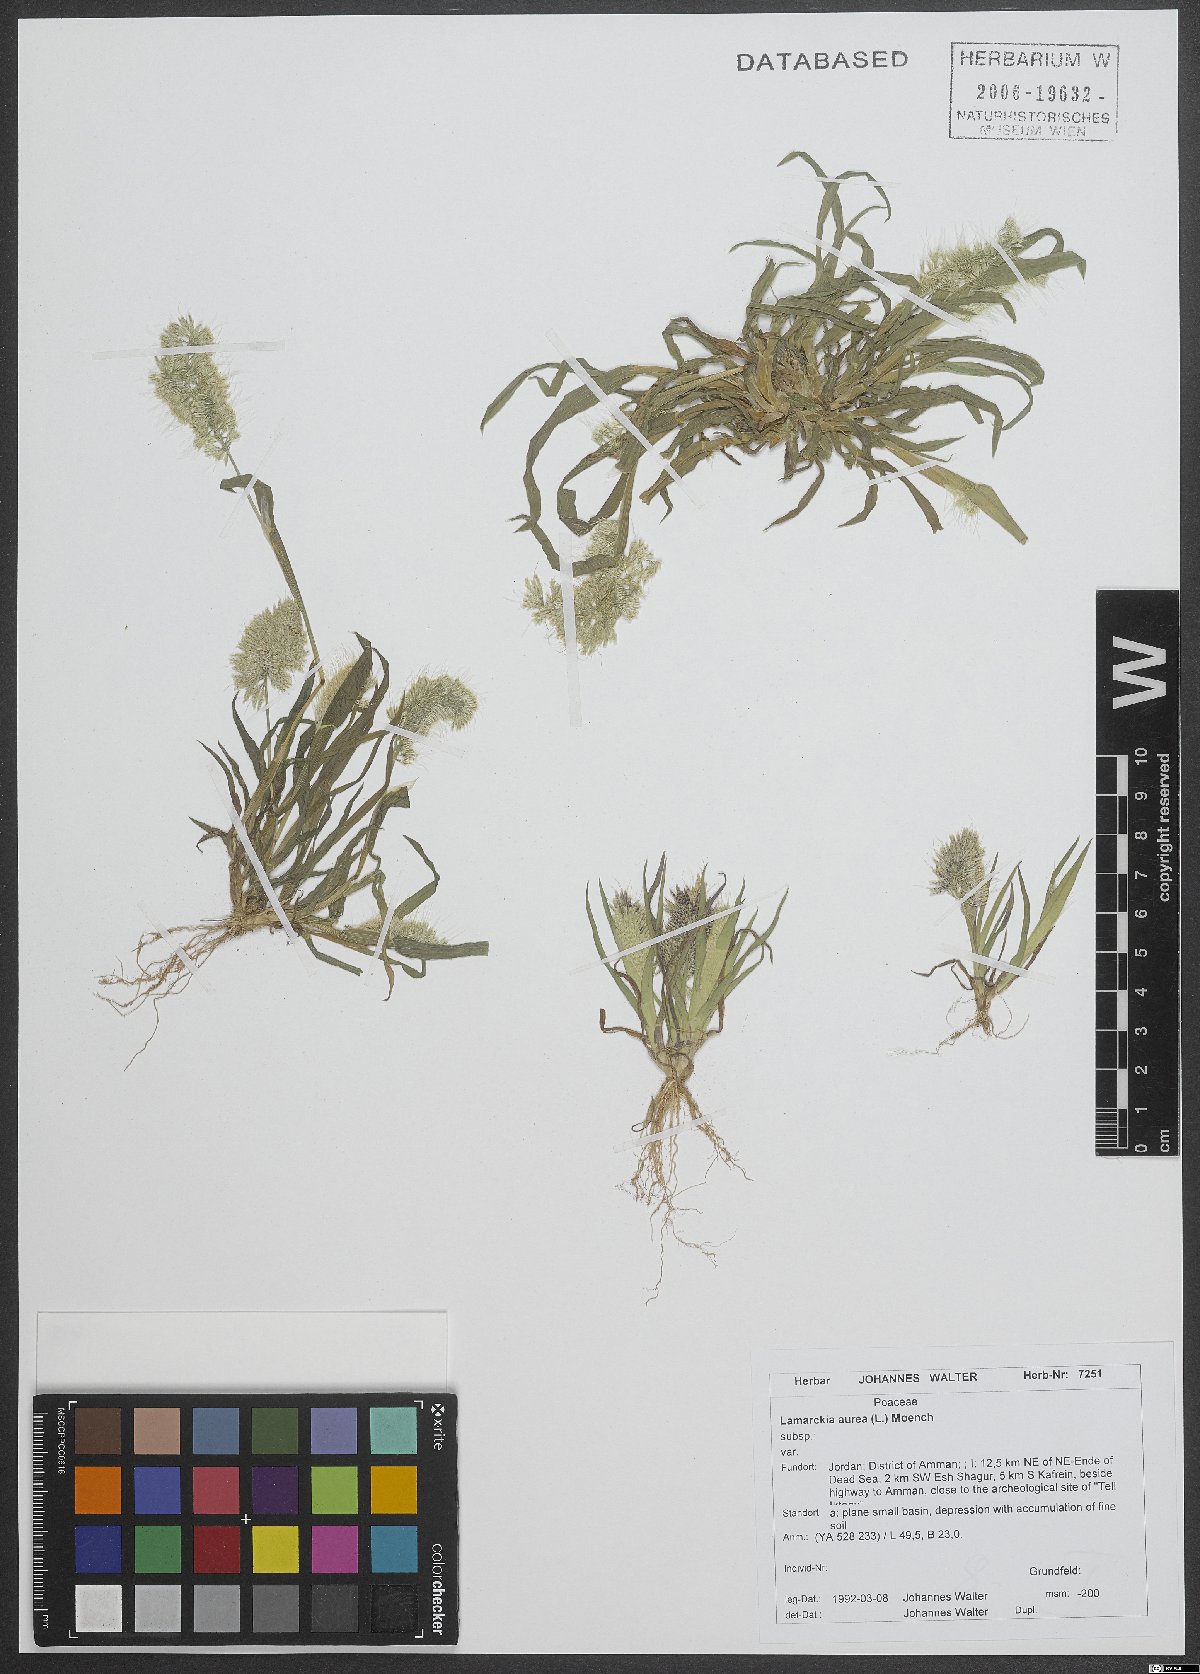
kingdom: Plantae
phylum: Tracheophyta
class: Liliopsida
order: Poales
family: Poaceae
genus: Lamarckia
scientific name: Lamarckia aurea
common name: Golden dog's-tail
